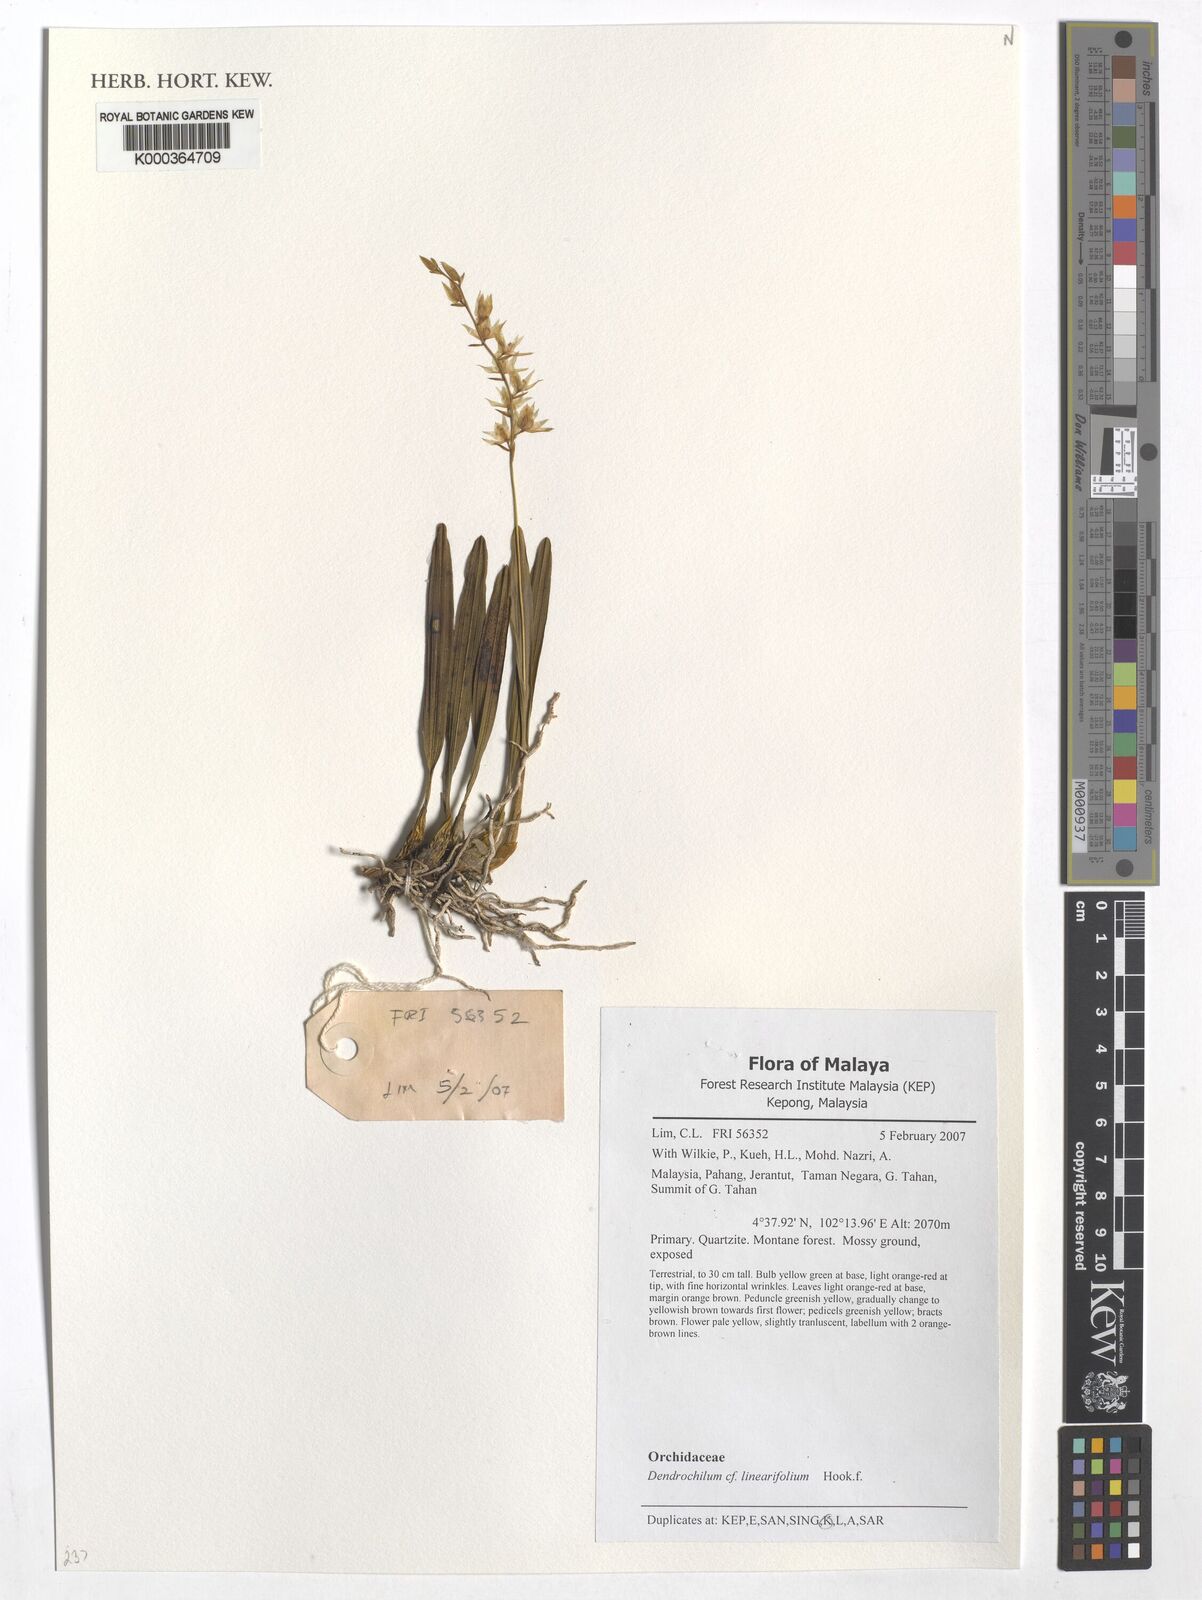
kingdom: Plantae
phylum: Tracheophyta
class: Liliopsida
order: Asparagales
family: Orchidaceae
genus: Coelogyne
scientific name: Coelogyne linearifolia
